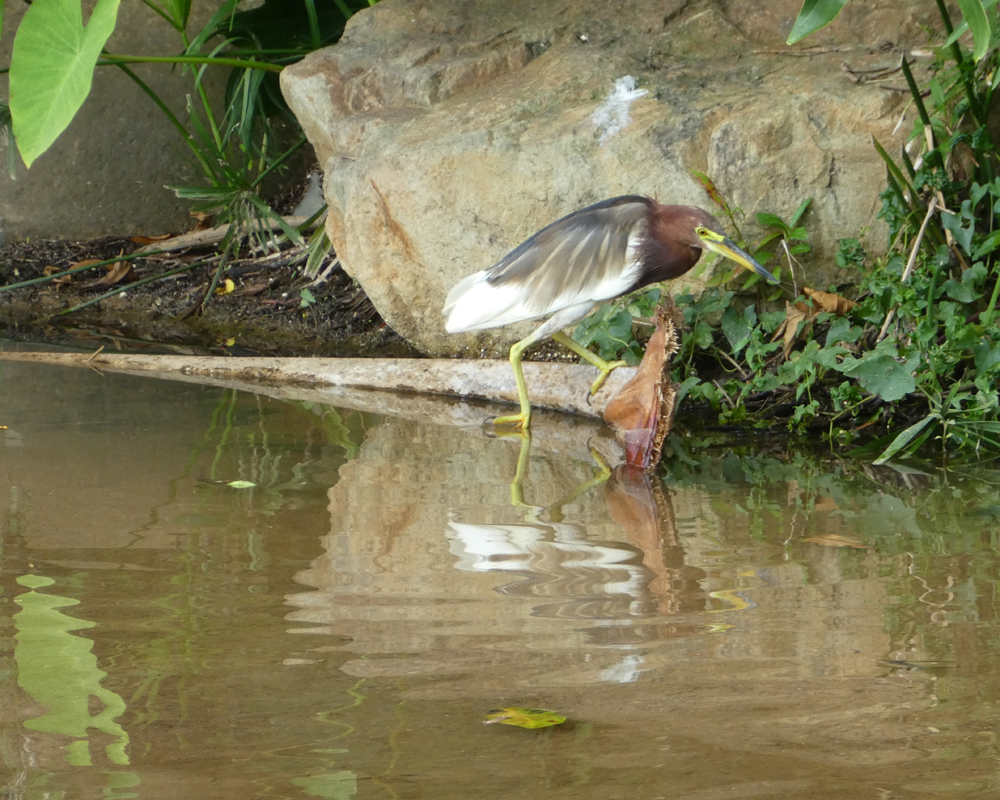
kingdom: Animalia
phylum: Chordata
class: Aves
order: Pelecaniformes
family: Ardeidae
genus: Ardeola
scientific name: Ardeola bacchus
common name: Chinese pond heron
